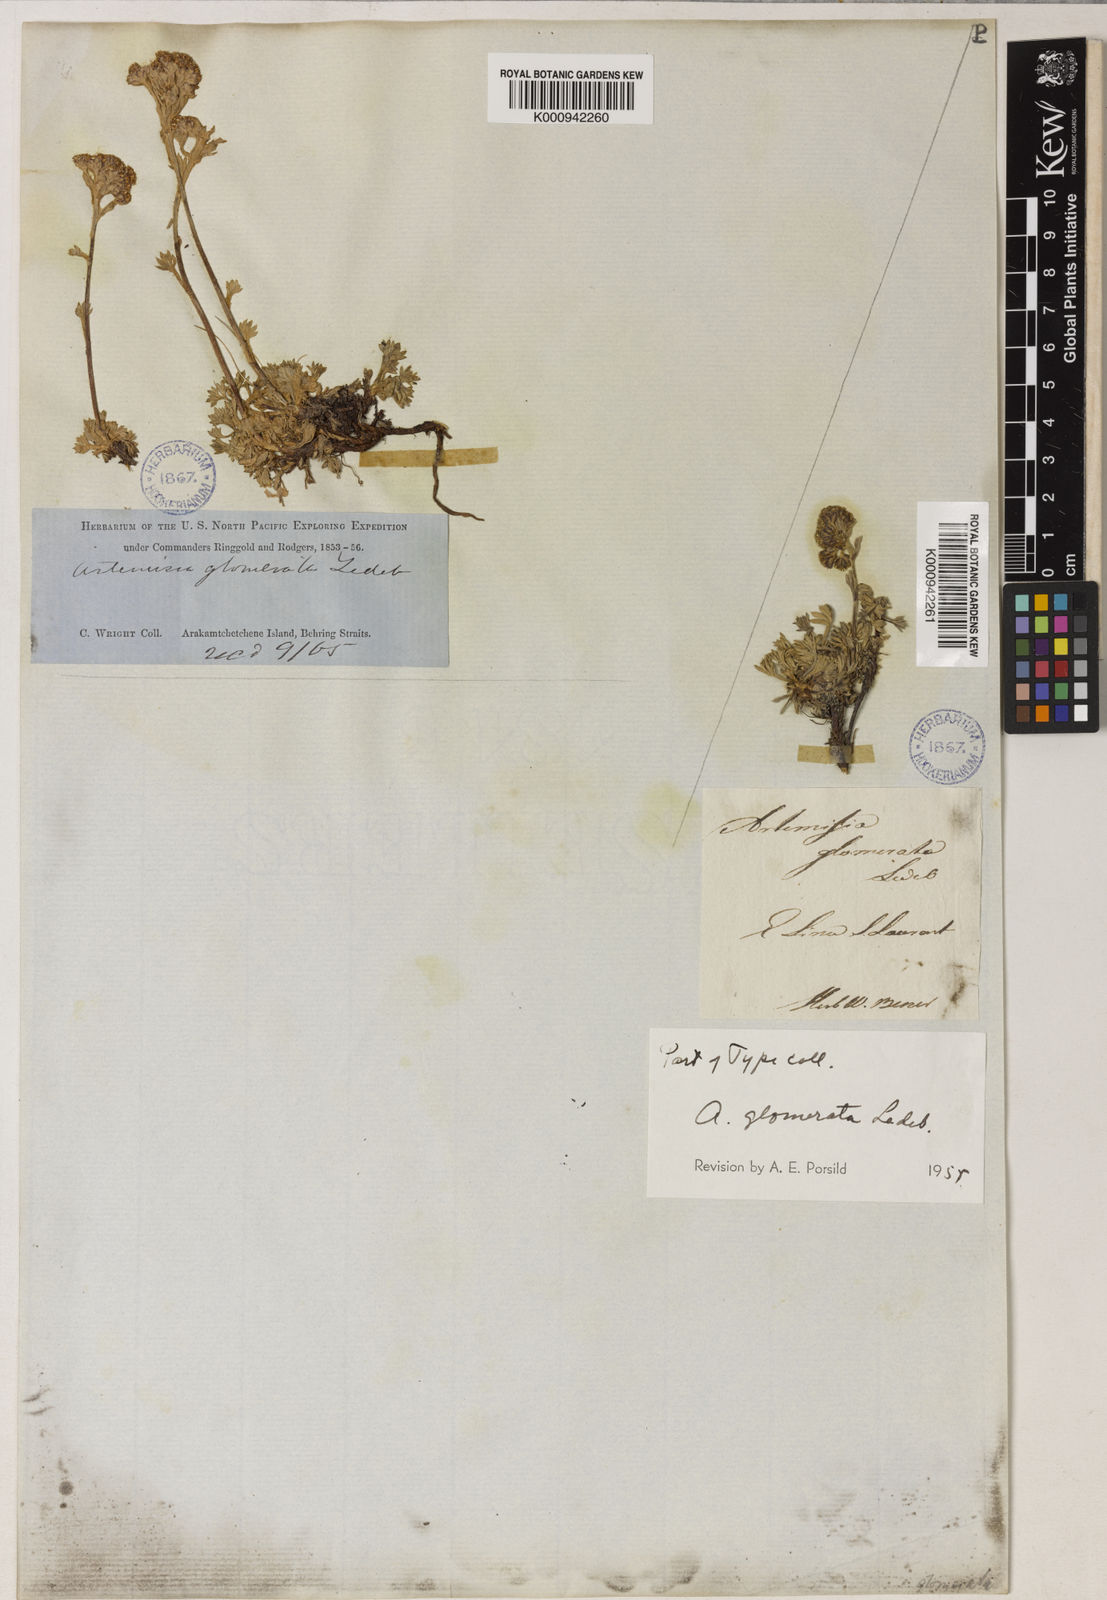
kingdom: Plantae
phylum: Tracheophyta
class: Magnoliopsida
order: Asterales
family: Asteraceae
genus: Artemisia
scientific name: Artemisia glomerata
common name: Pacific alpine wormwood
